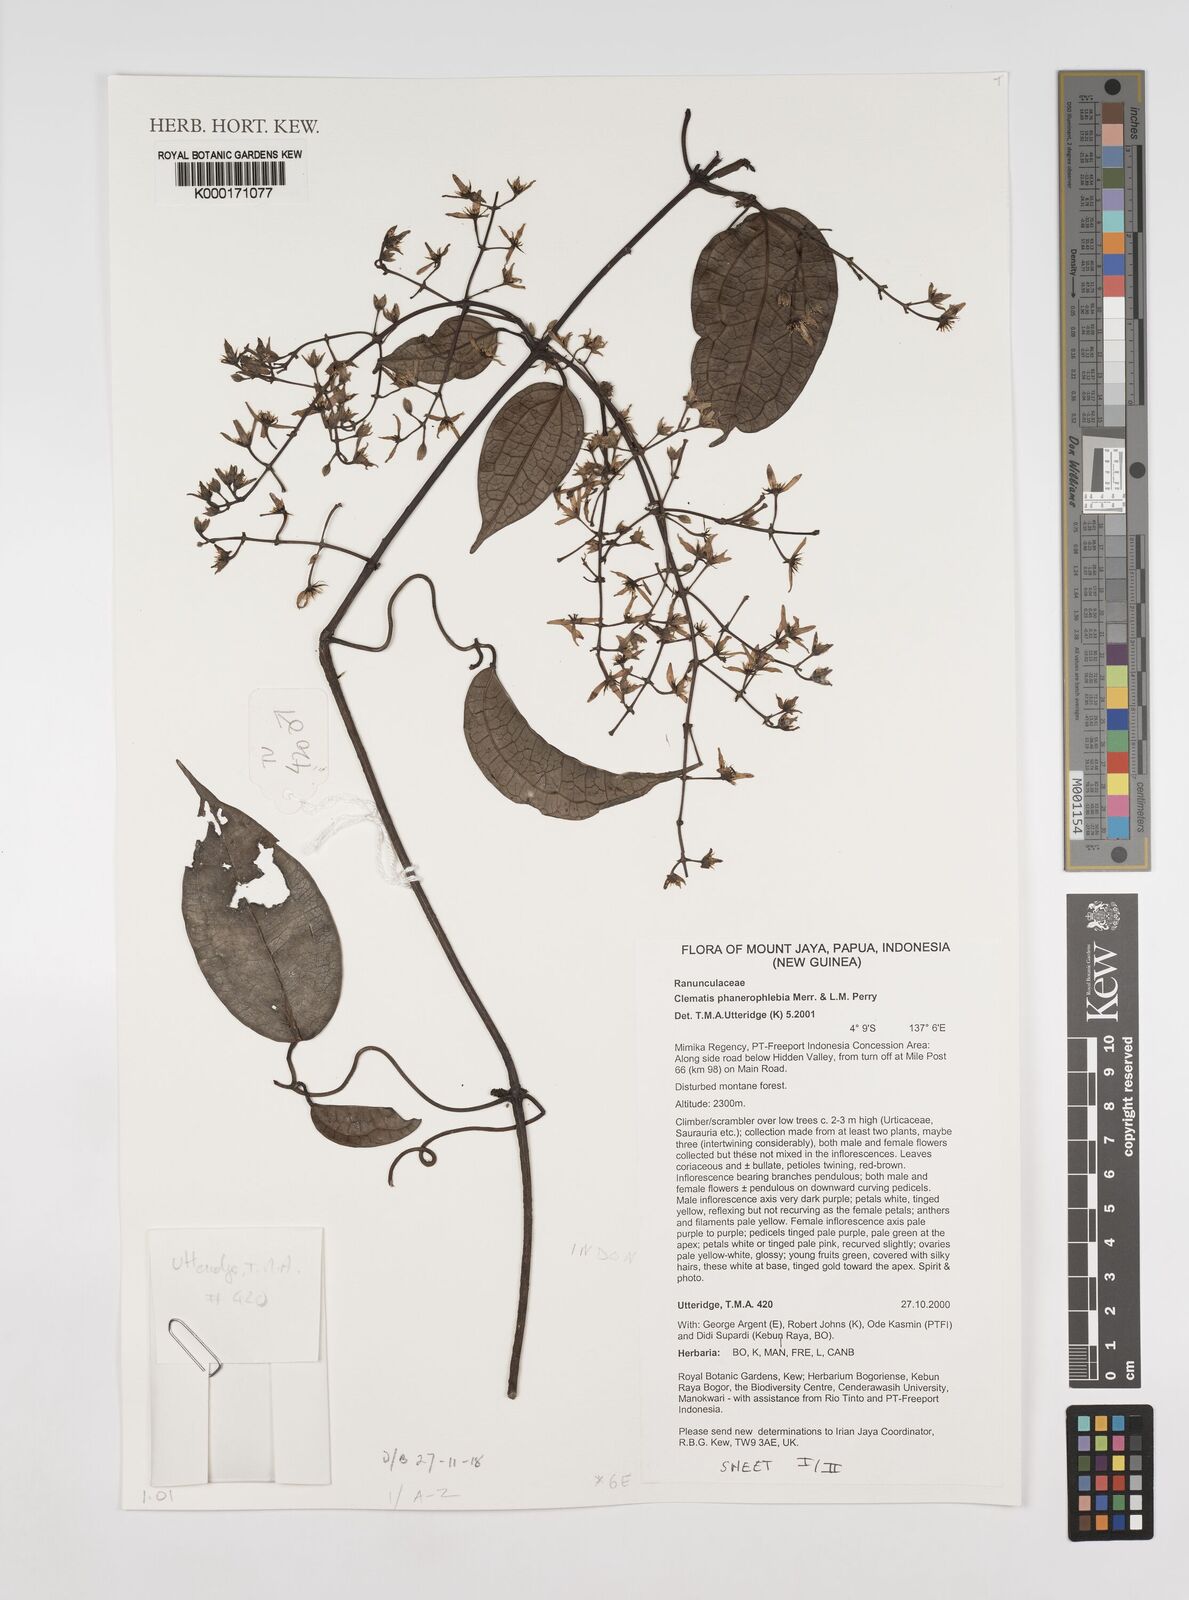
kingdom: Plantae
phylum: Tracheophyta
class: Magnoliopsida
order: Ranunculales
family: Ranunculaceae
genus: Clematis
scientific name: Clematis phanerophlebia
